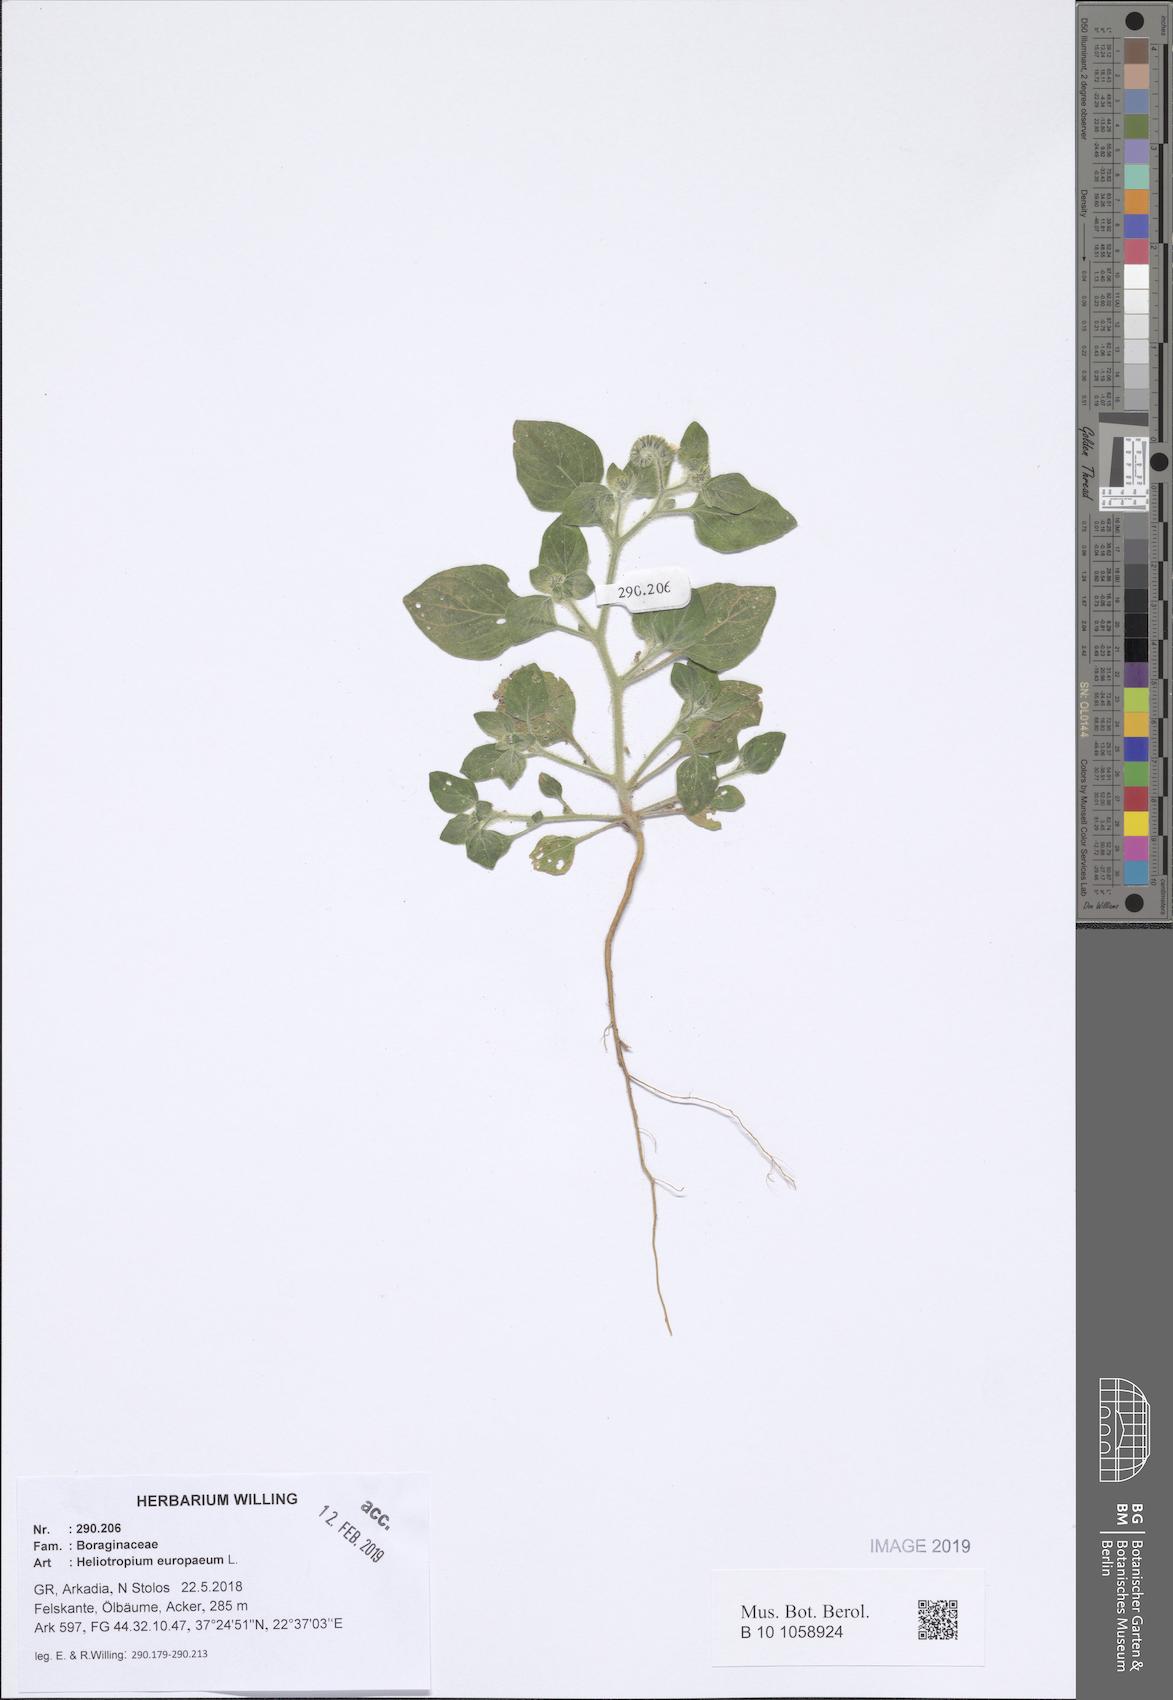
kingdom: Plantae
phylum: Tracheophyta
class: Magnoliopsida
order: Boraginales
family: Heliotropiaceae
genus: Heliotropium
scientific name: Heliotropium europaeum
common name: European heliotrope
